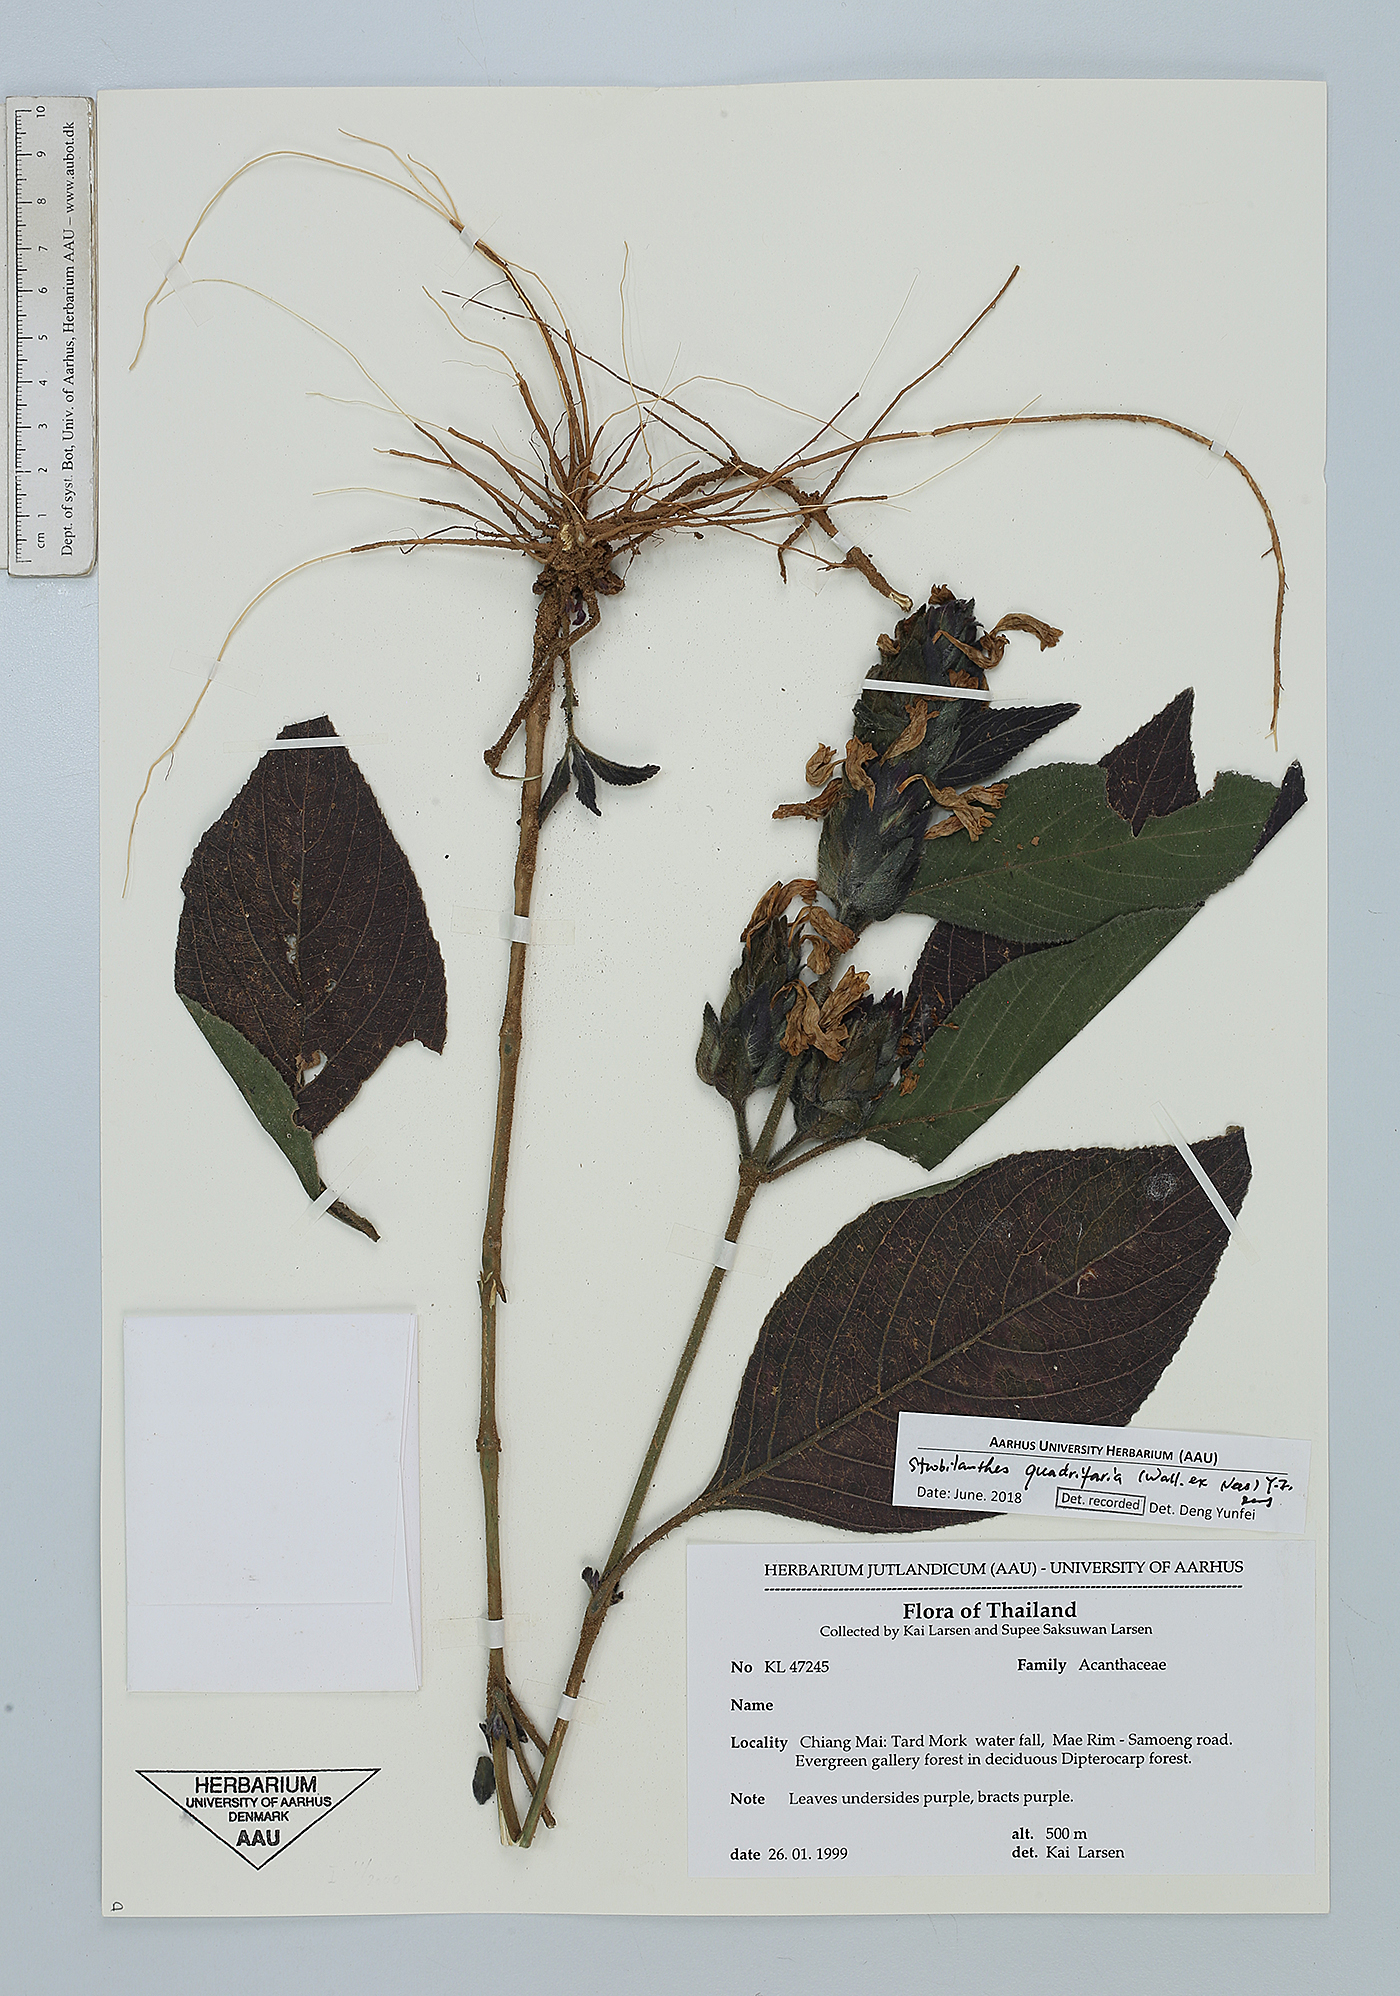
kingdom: Plantae
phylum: Tracheophyta
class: Magnoliopsida
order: Lamiales
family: Acanthaceae
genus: Strobilanthes
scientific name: Strobilanthes quadrifaria
